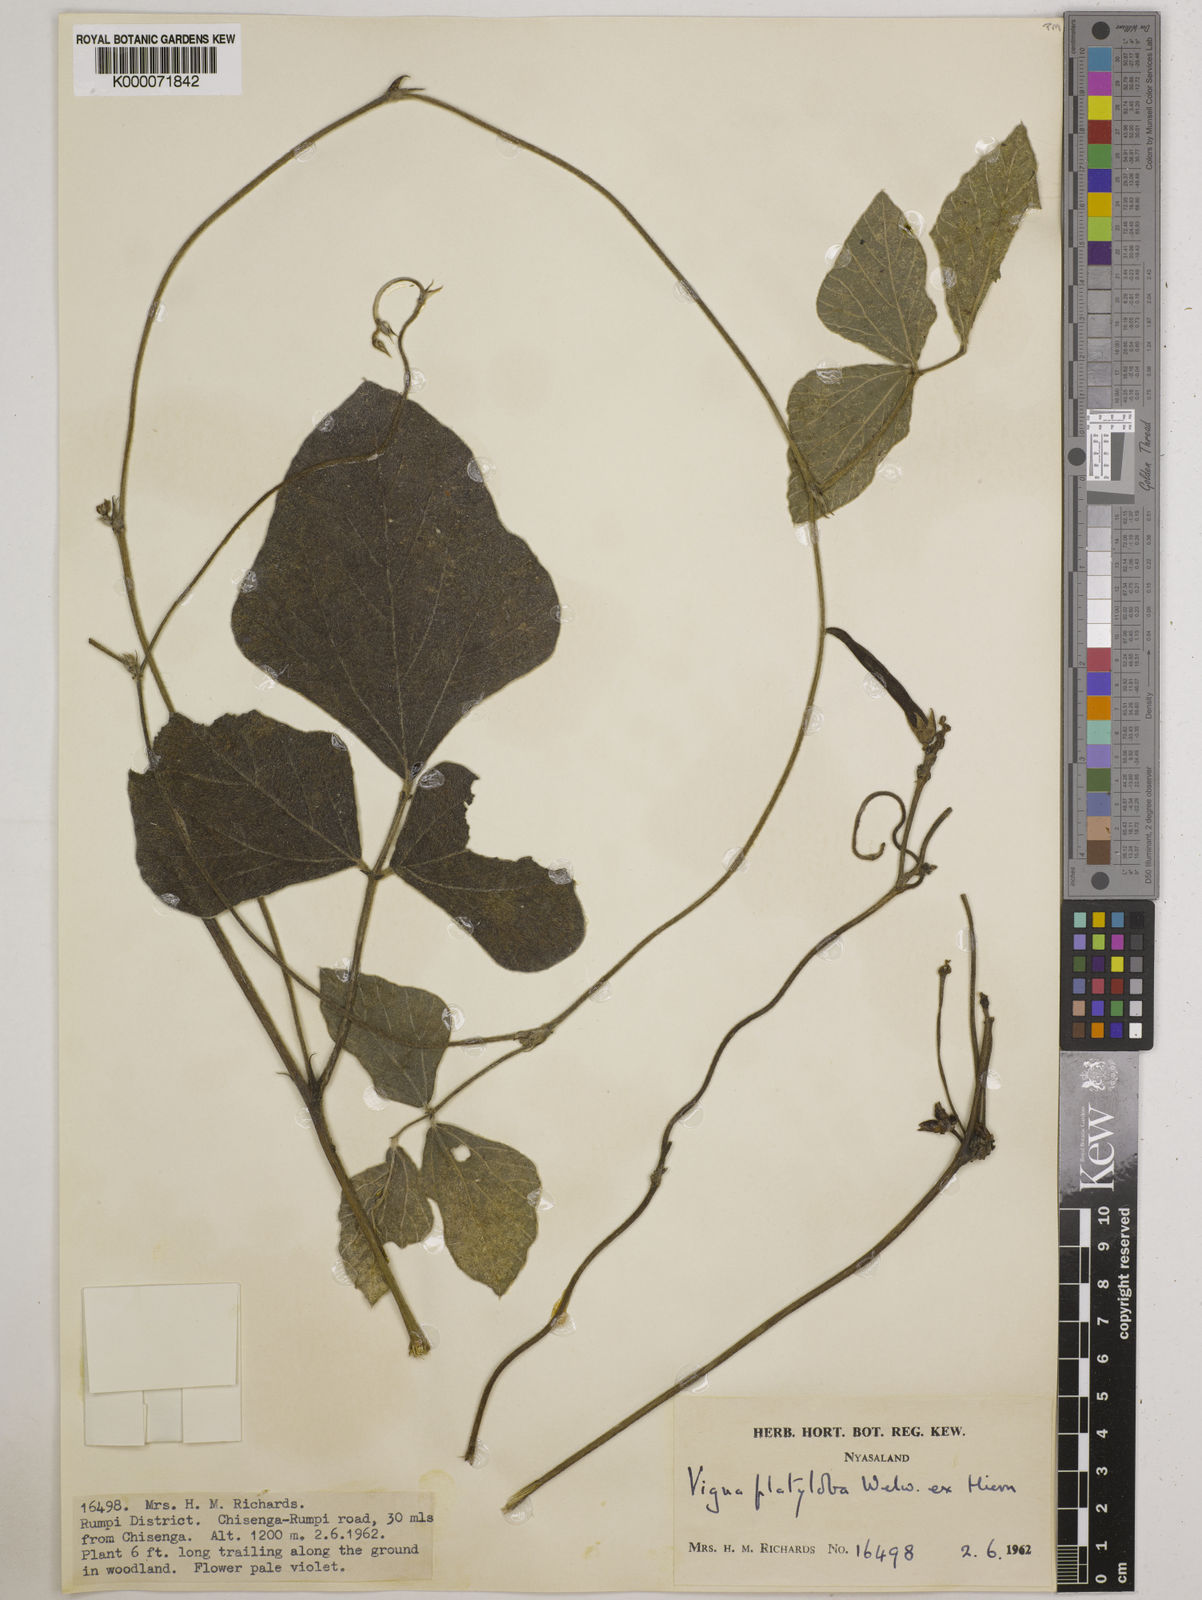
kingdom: Plantae
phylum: Tracheophyta
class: Magnoliopsida
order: Fabales
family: Fabaceae
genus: Vigna
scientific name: Vigna platyloba
